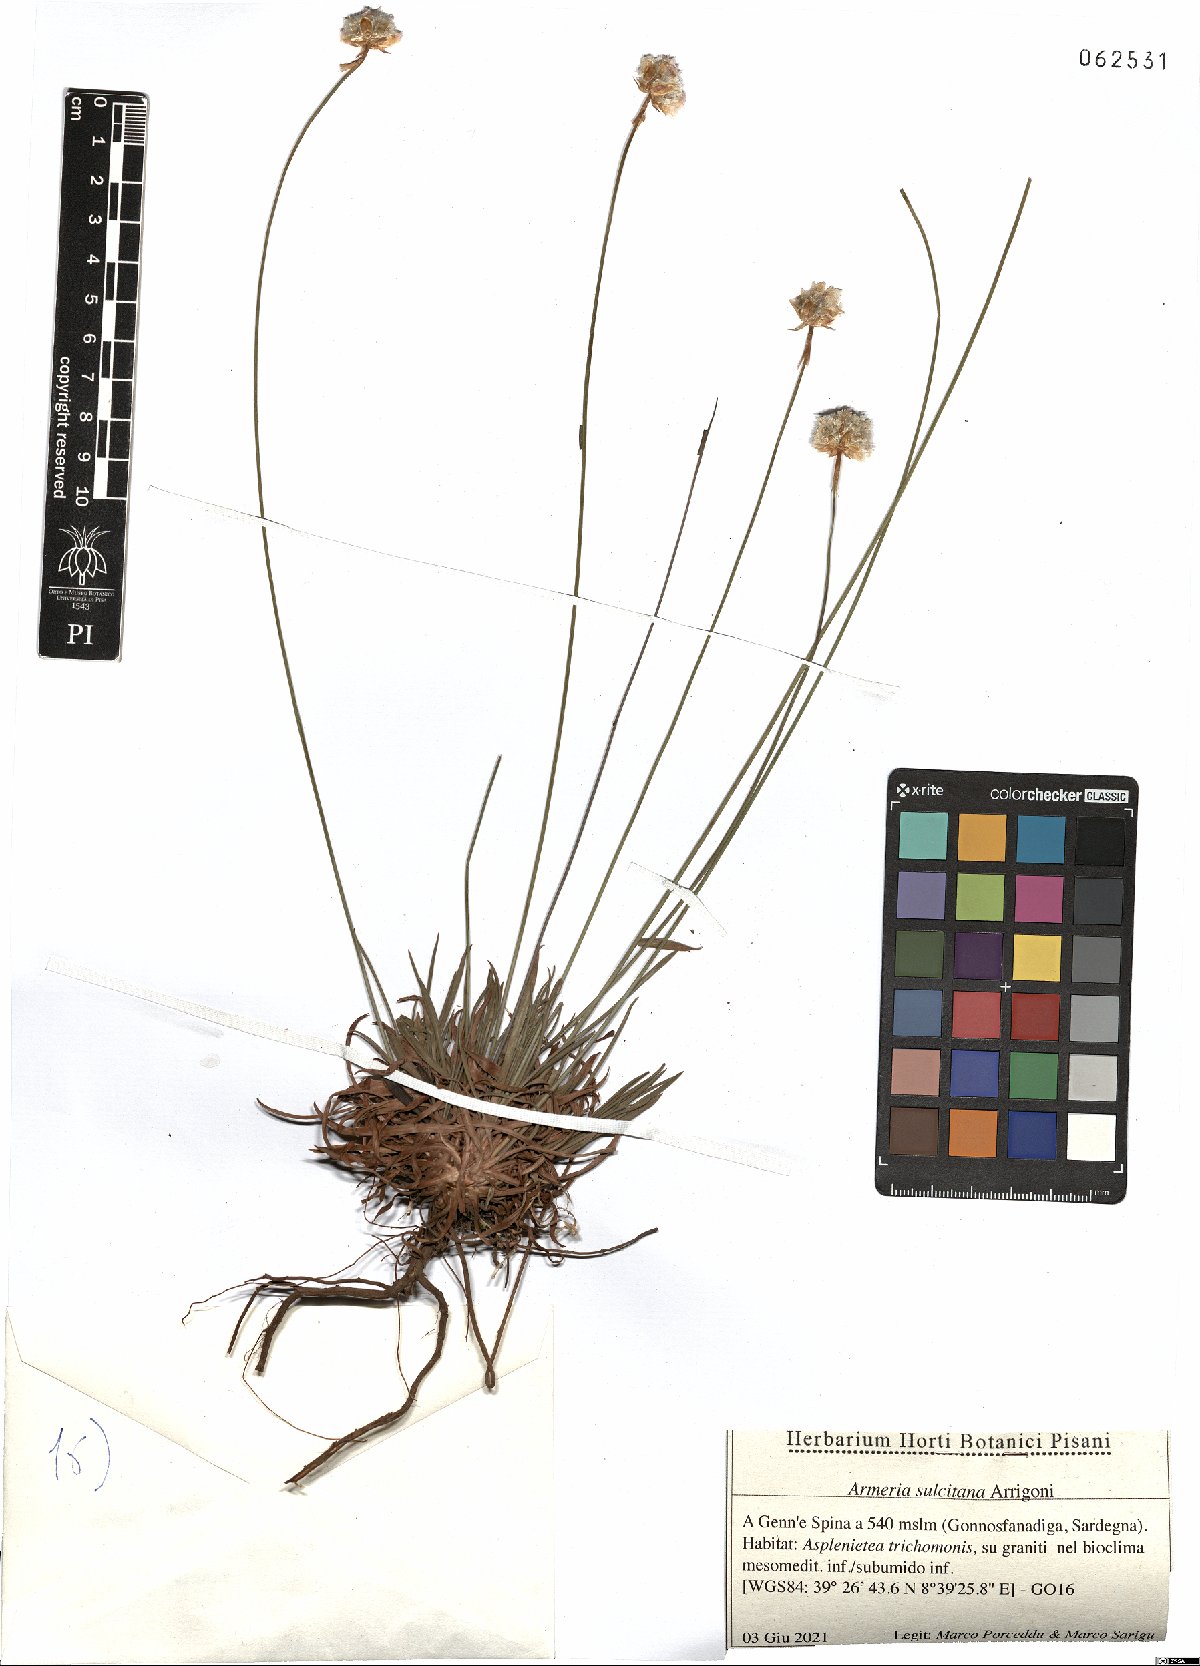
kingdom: Plantae
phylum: Tracheophyta
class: Magnoliopsida
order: Caryophyllales
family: Plumbaginaceae
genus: Armeria
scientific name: Armeria sulcitana
